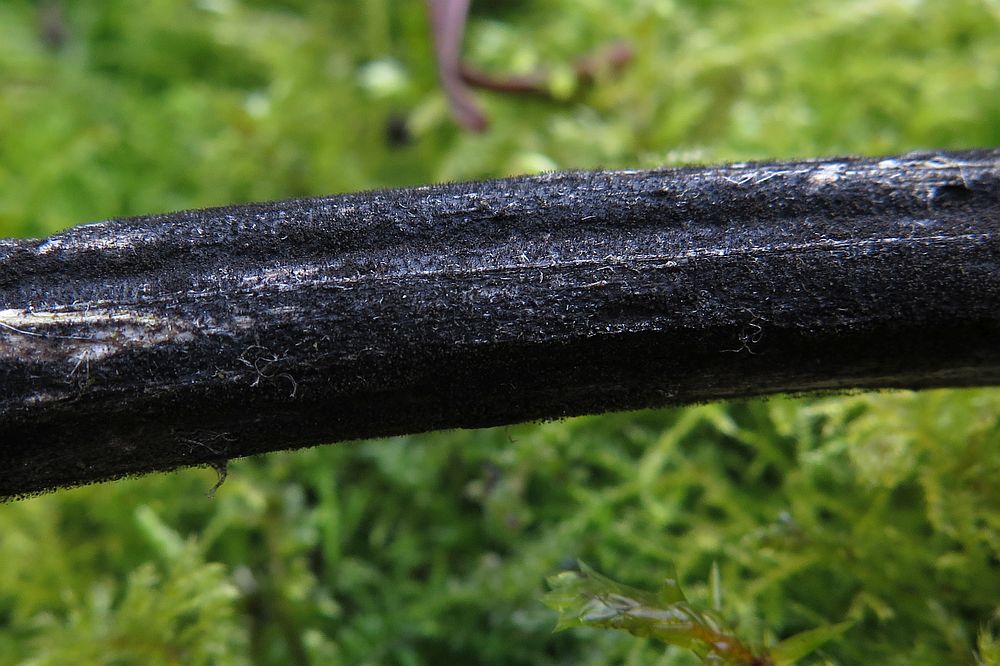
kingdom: Fungi
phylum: Ascomycota
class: Dothideomycetes
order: Pleosporales
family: Periconiaceae
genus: Periconia
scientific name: Periconia minutissima
